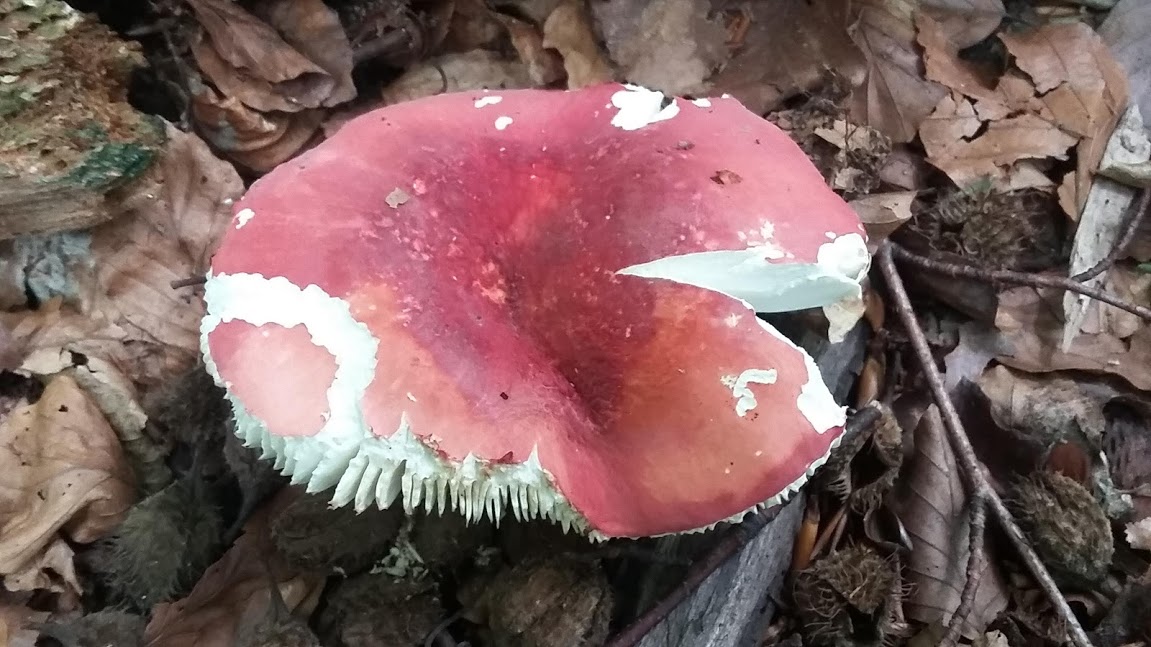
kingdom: Fungi
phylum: Basidiomycota
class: Agaricomycetes
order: Russulales
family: Russulaceae
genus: Russula
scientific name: Russula rosea
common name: fastkødet skørhat
